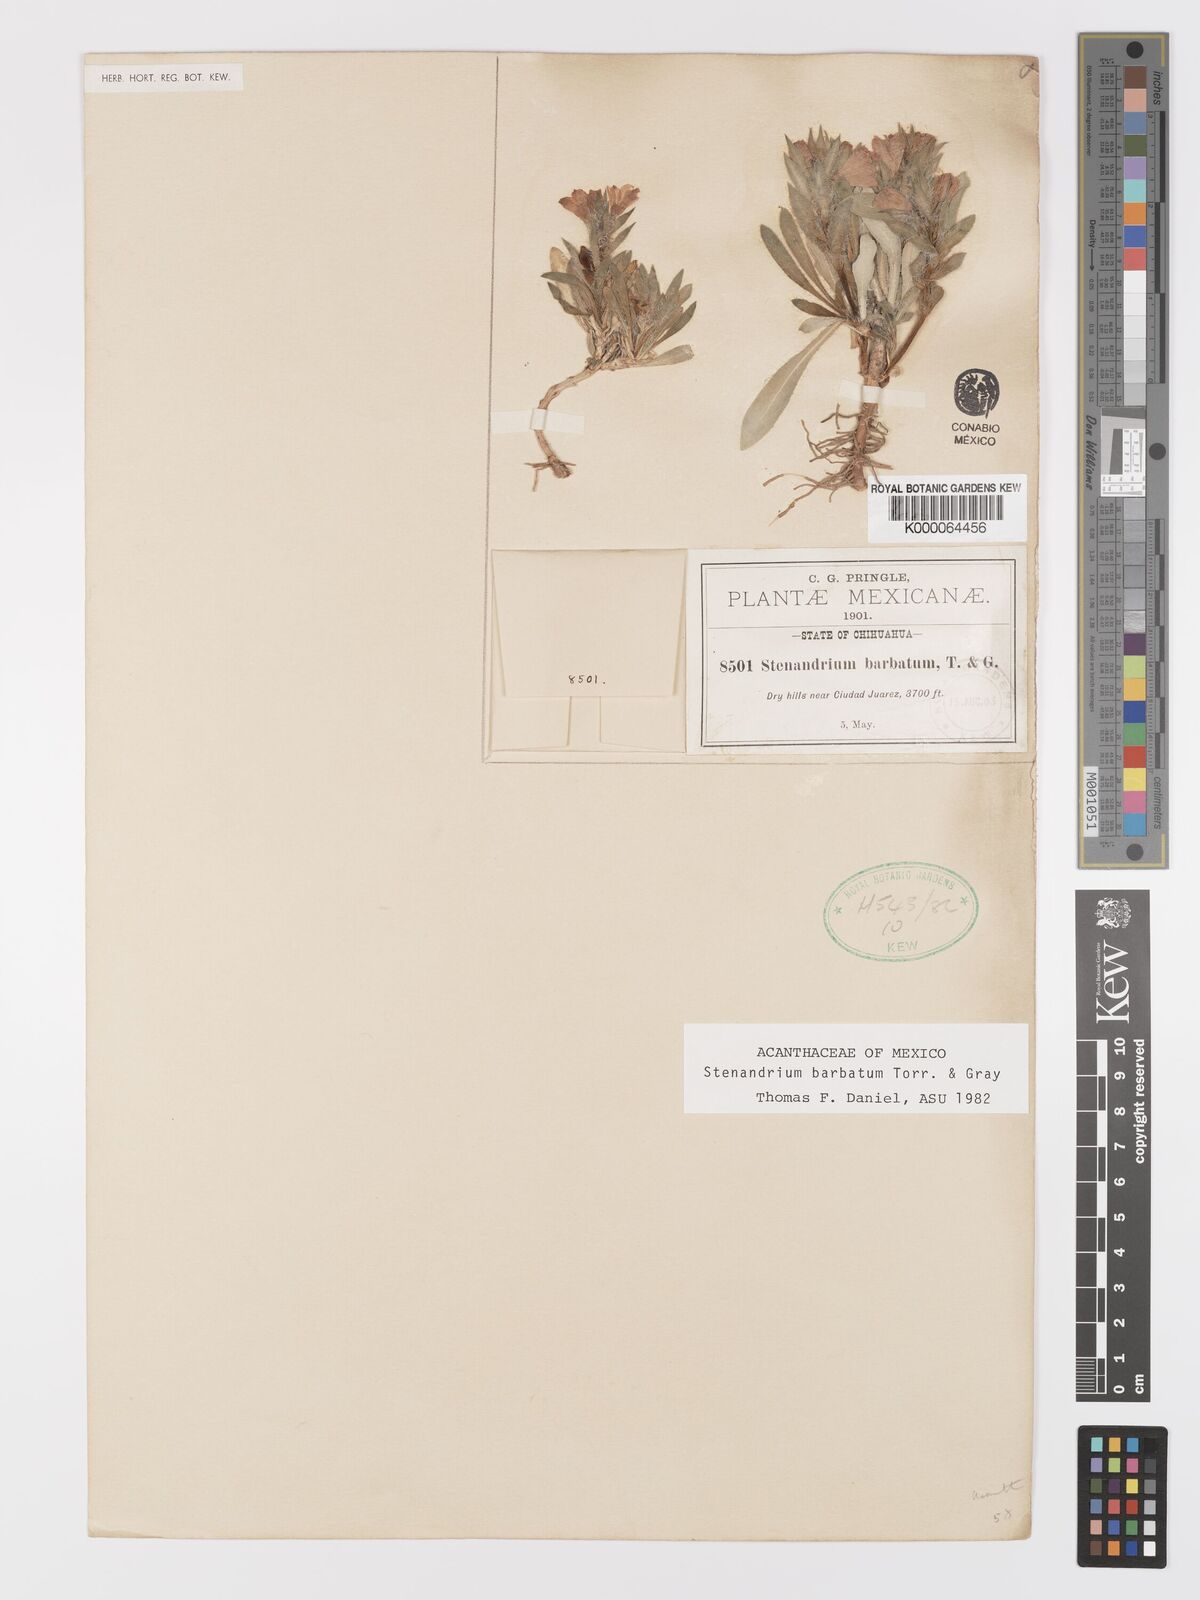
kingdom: Plantae
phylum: Tracheophyta
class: Magnoliopsida
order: Lamiales
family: Acanthaceae
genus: Stenandrium
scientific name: Stenandrium barbatum
